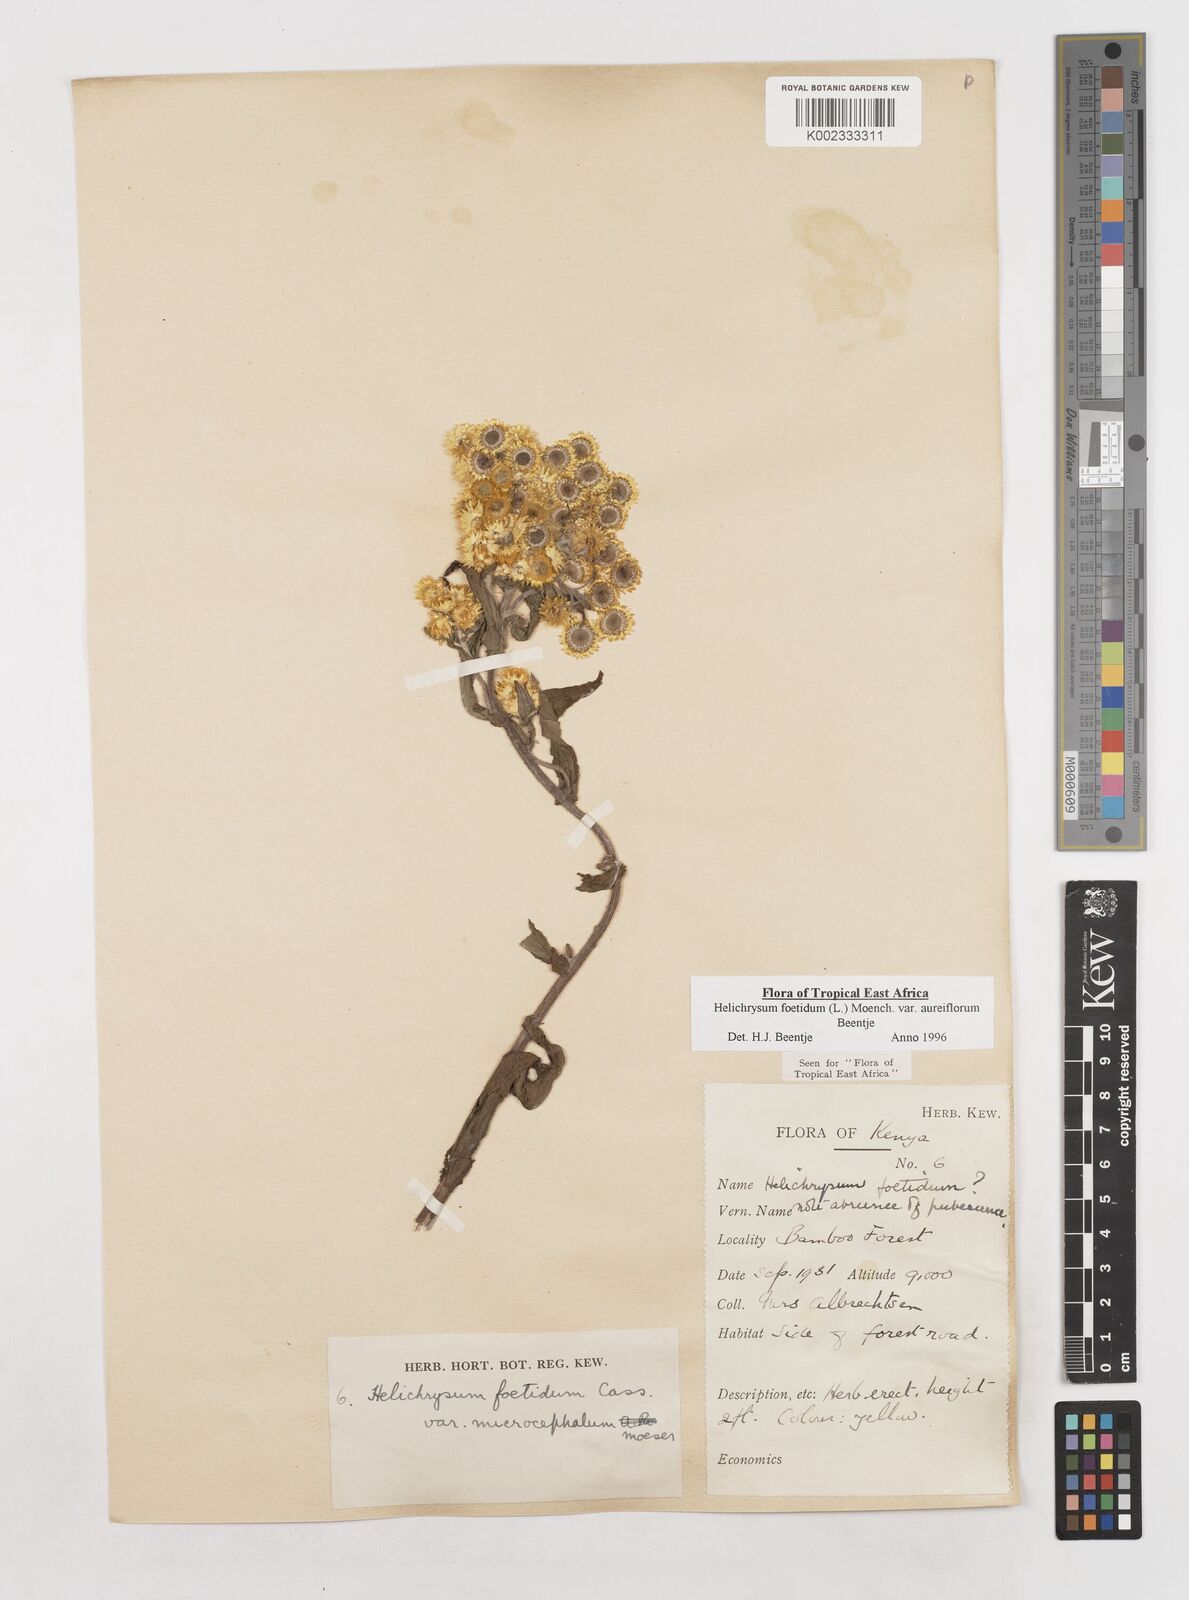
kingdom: Plantae
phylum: Tracheophyta
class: Magnoliopsida
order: Asterales
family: Asteraceae
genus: Helichrysum
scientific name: Helichrysum foetidum
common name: Stinking everlasting
